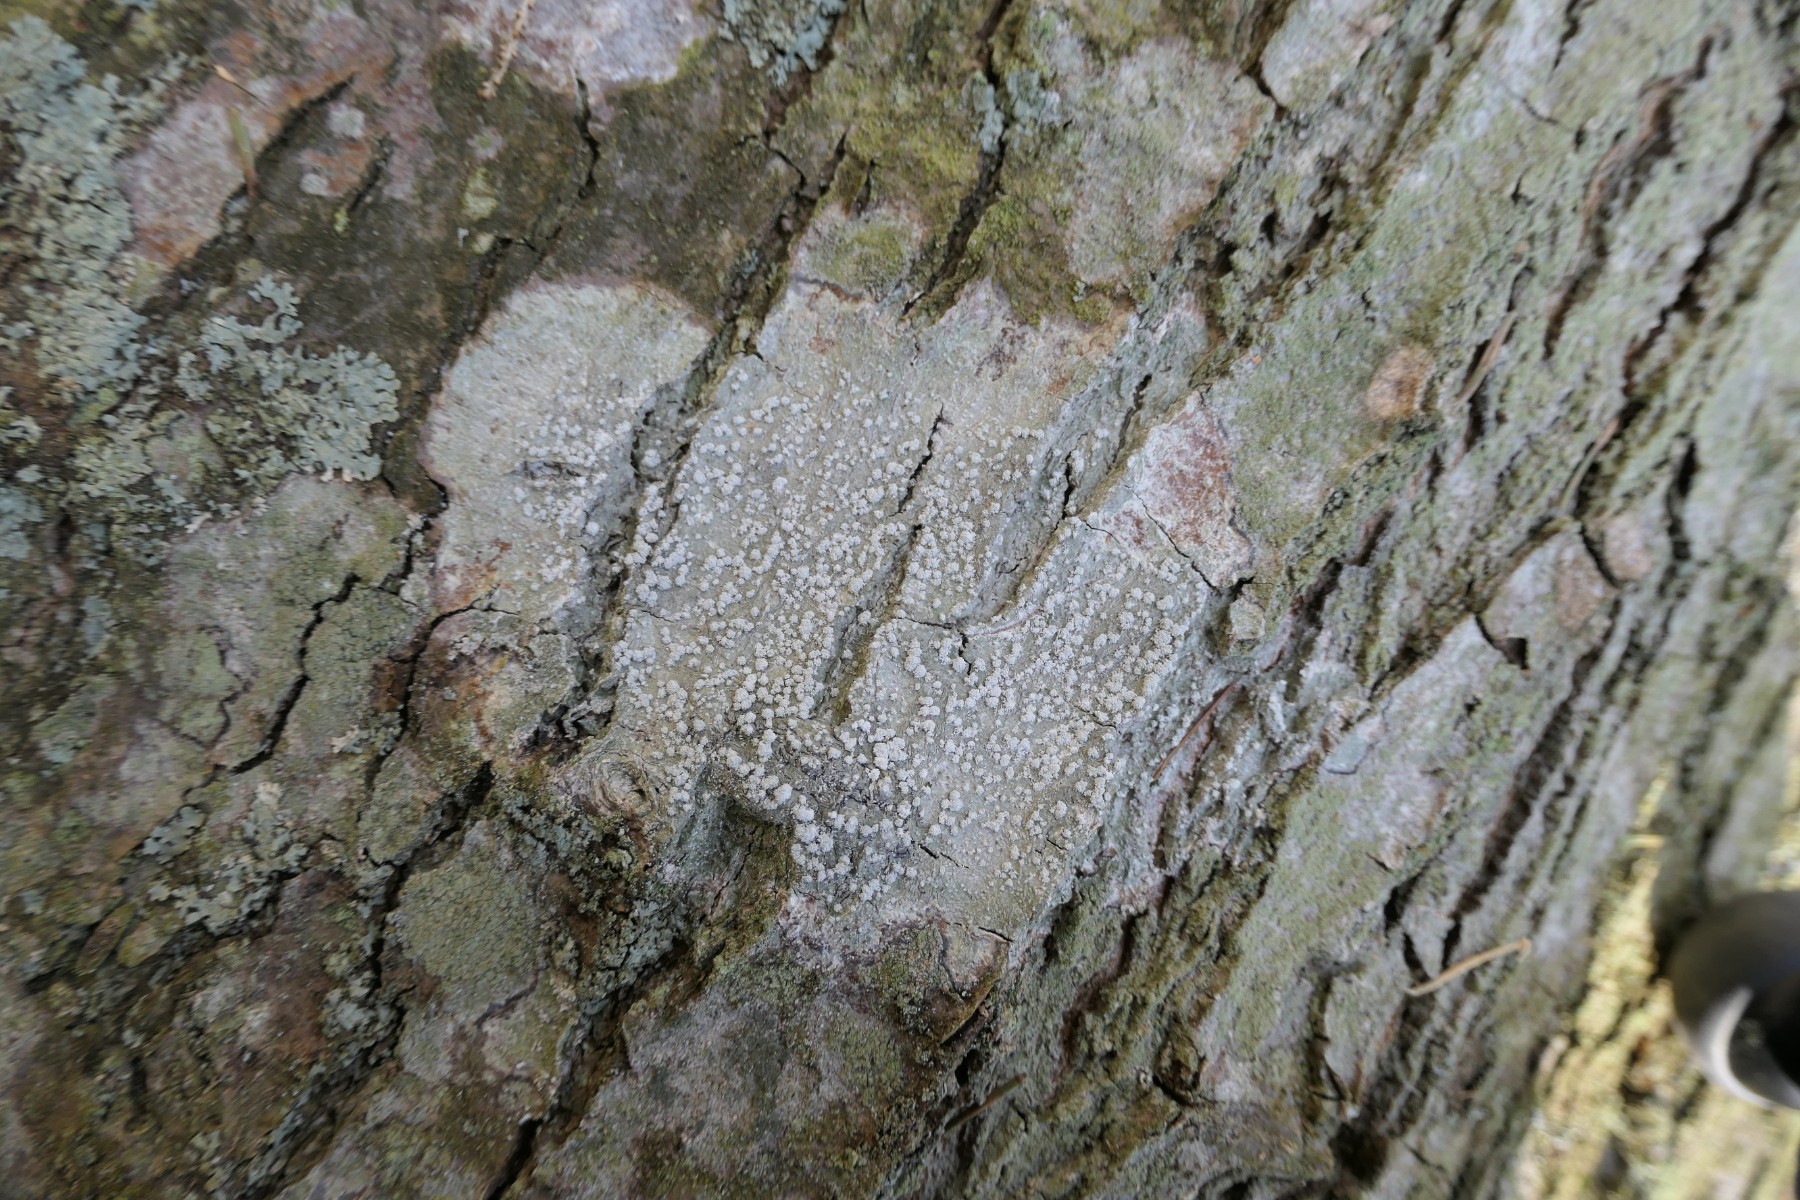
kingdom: Fungi
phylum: Ascomycota
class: Lecanoromycetes
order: Pertusariales
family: Pertusariaceae
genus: Lepra
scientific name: Lepra amara
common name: bitter prikvortelav
